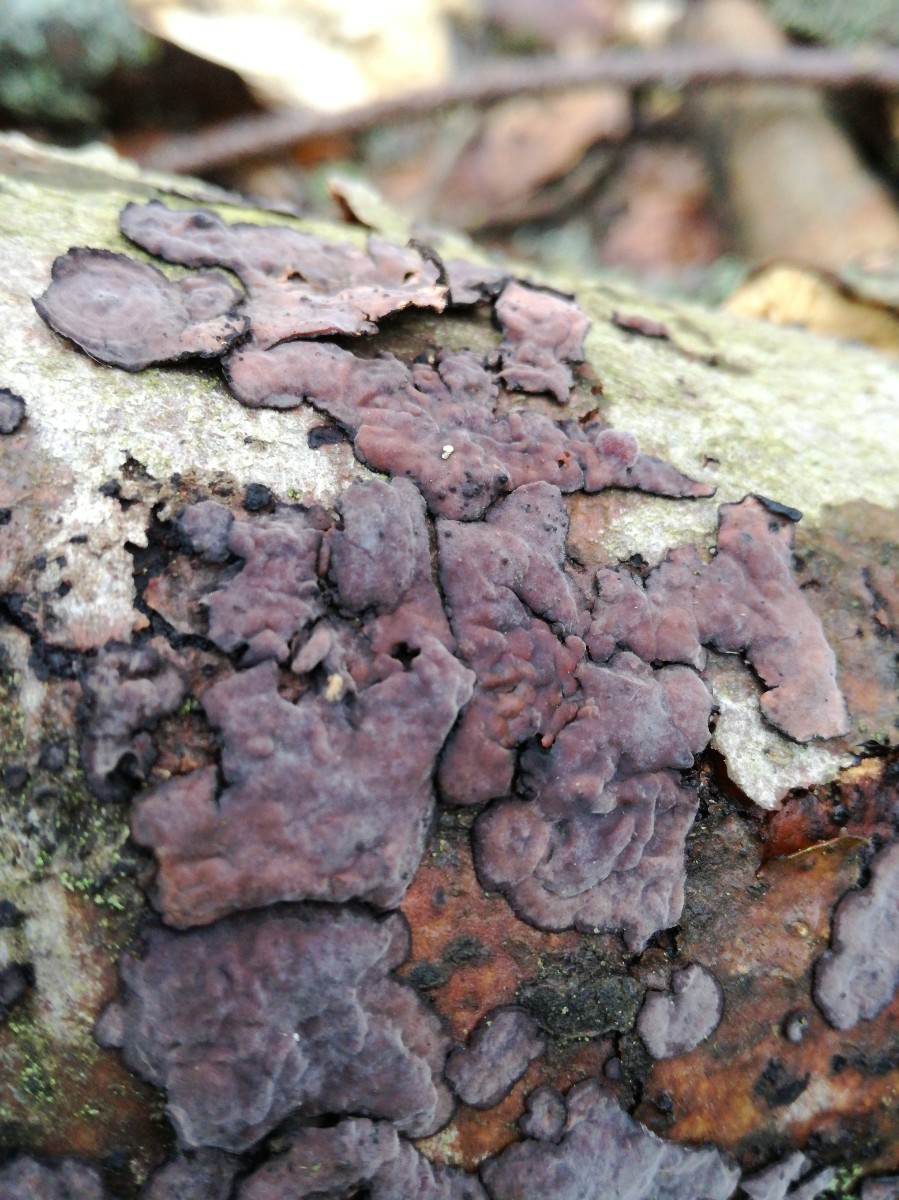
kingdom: Fungi
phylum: Basidiomycota
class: Agaricomycetes
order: Russulales
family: Peniophoraceae
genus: Peniophora
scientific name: Peniophora quercina
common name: ege-voksskind
